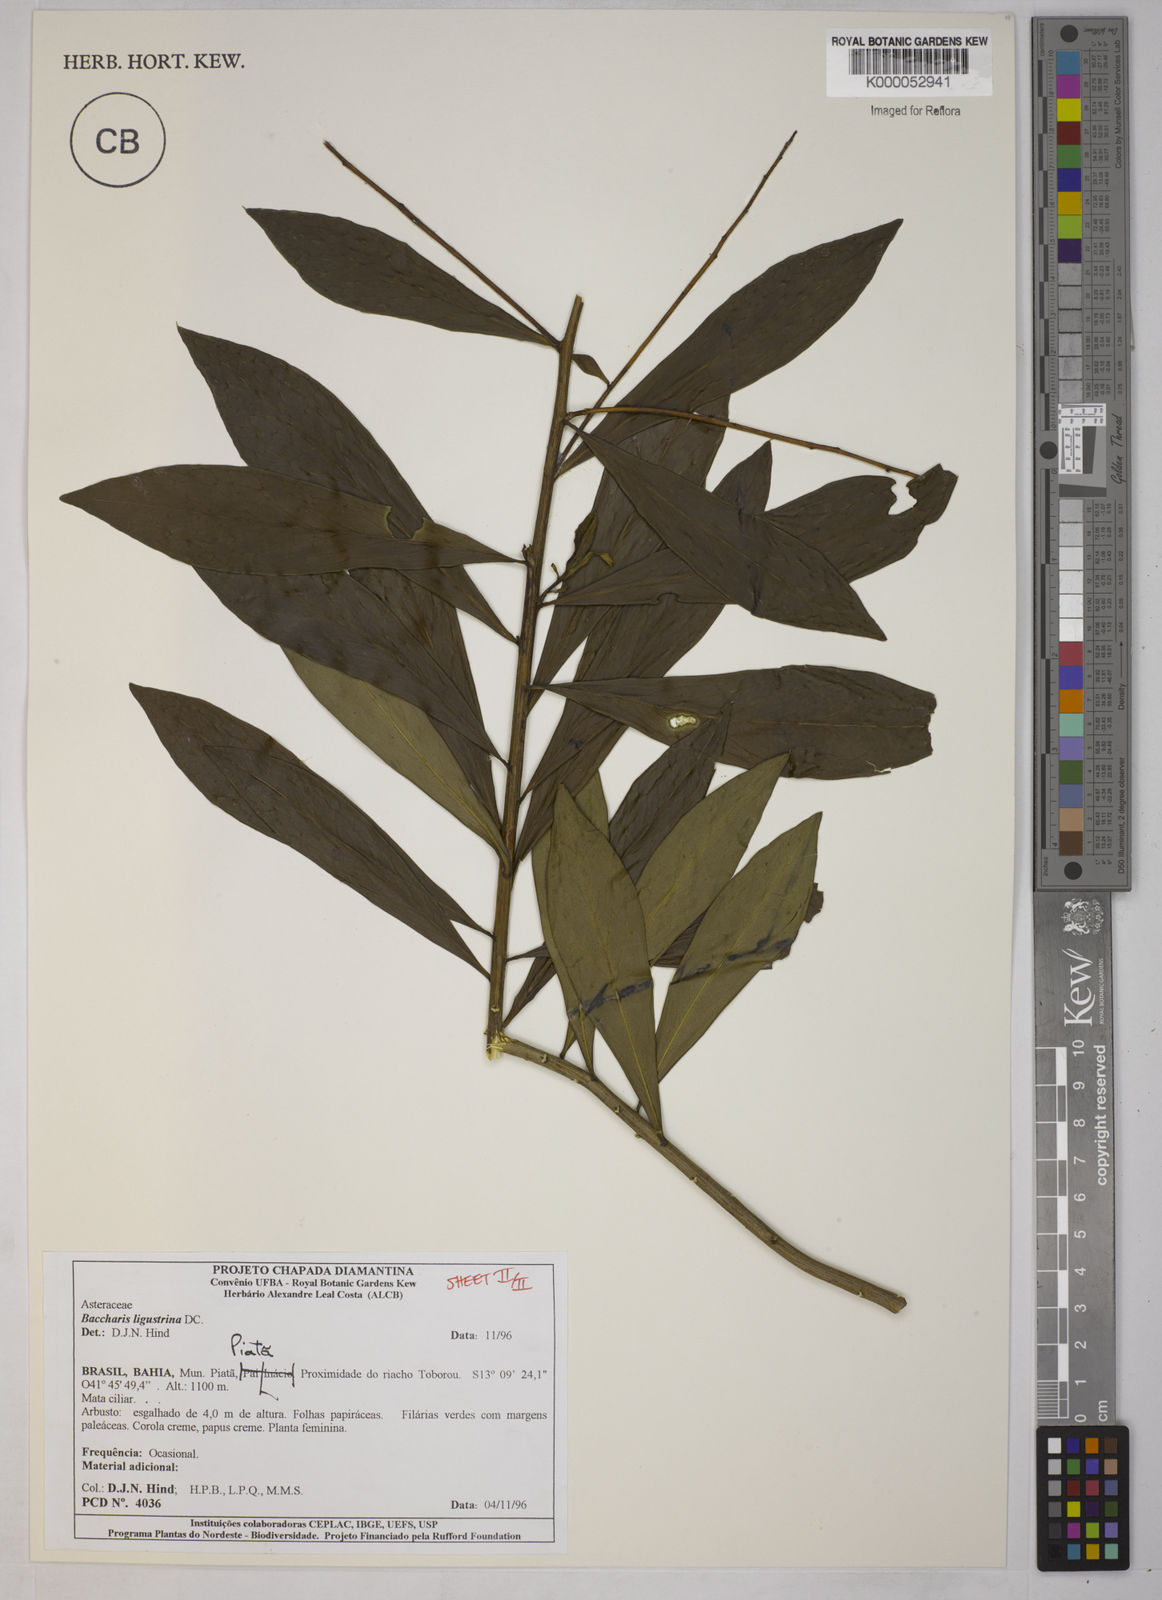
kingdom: Plantae
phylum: Tracheophyta
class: Magnoliopsida
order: Asterales
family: Asteraceae
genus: Baccharis
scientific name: Baccharis ligustrina
